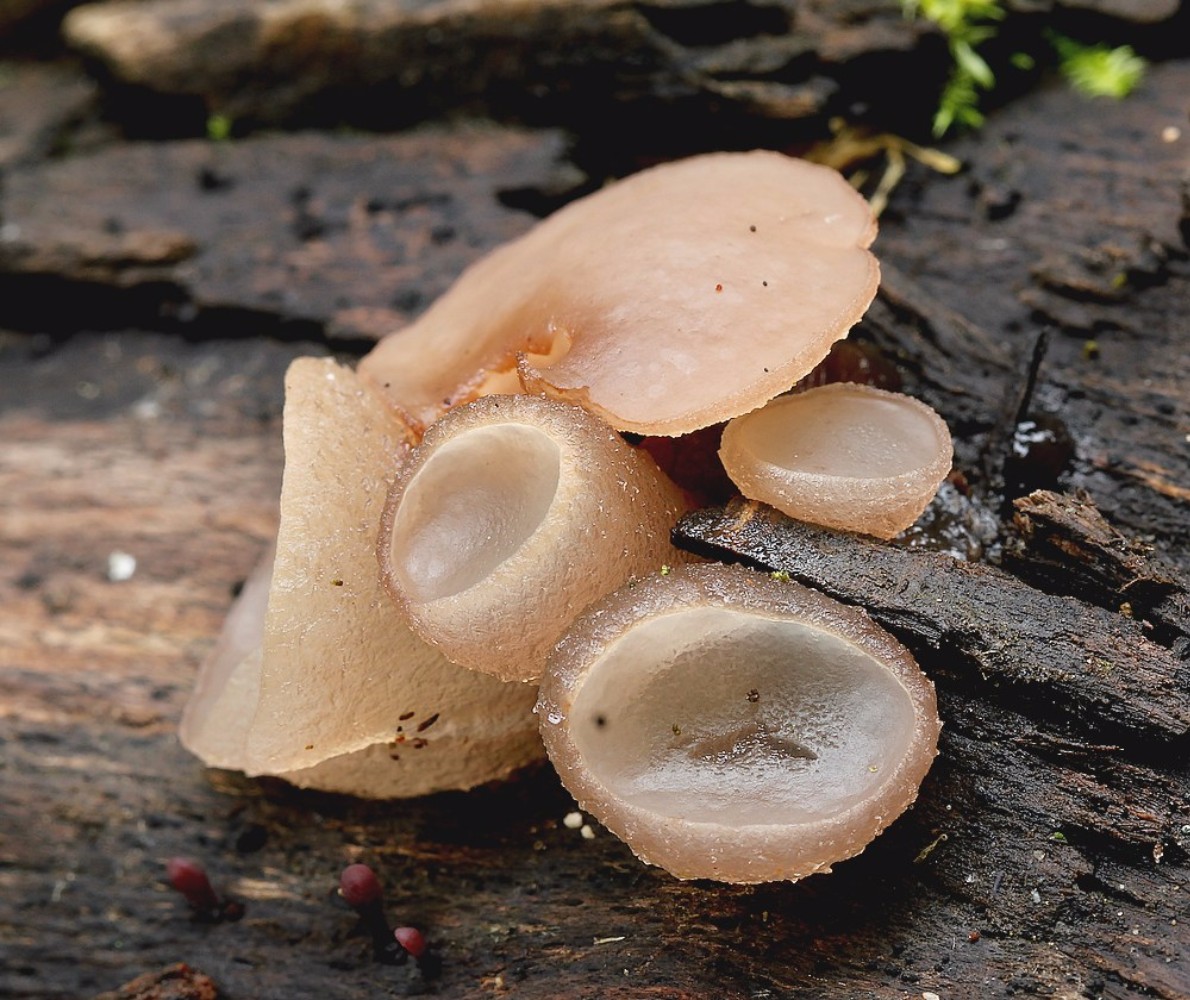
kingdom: Fungi
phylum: Ascomycota
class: Leotiomycetes
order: Helotiales
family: Gelatinodiscaceae
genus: Neobulgaria
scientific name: Neobulgaria pura
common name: bleg bævreskive
